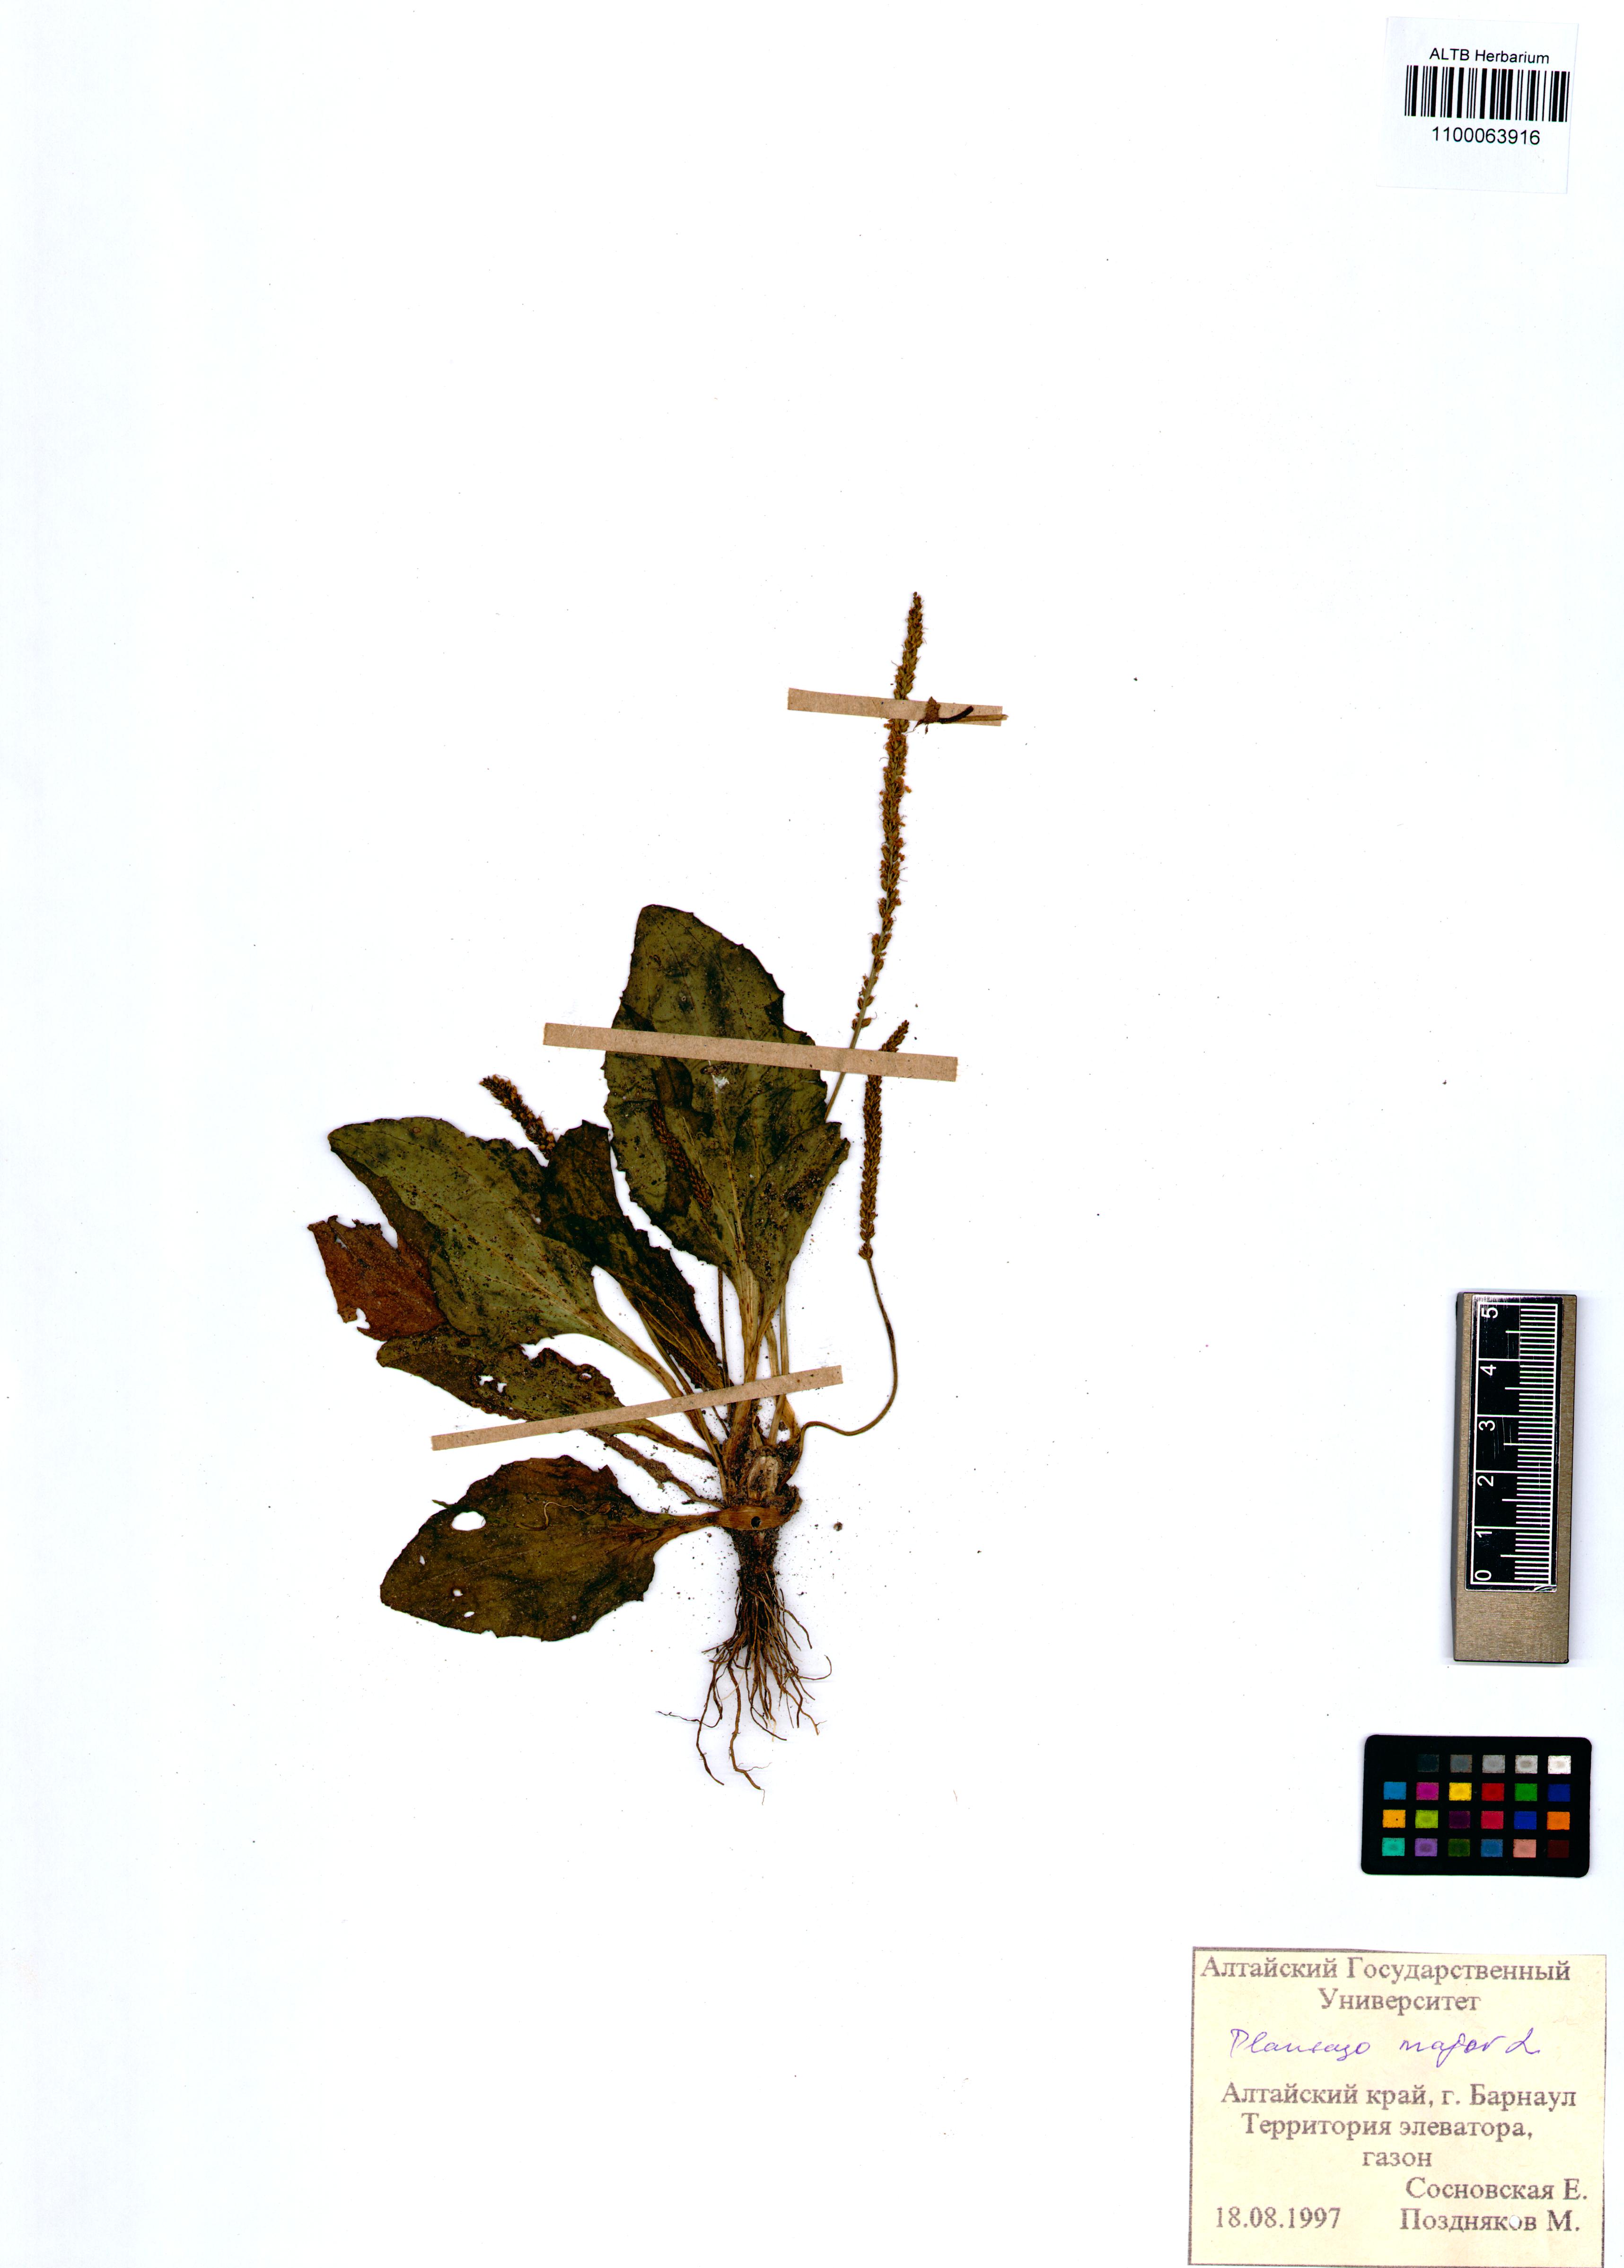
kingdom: Plantae
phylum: Tracheophyta
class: Magnoliopsida
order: Lamiales
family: Plantaginaceae
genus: Plantago
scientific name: Plantago major
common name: Common plantain
